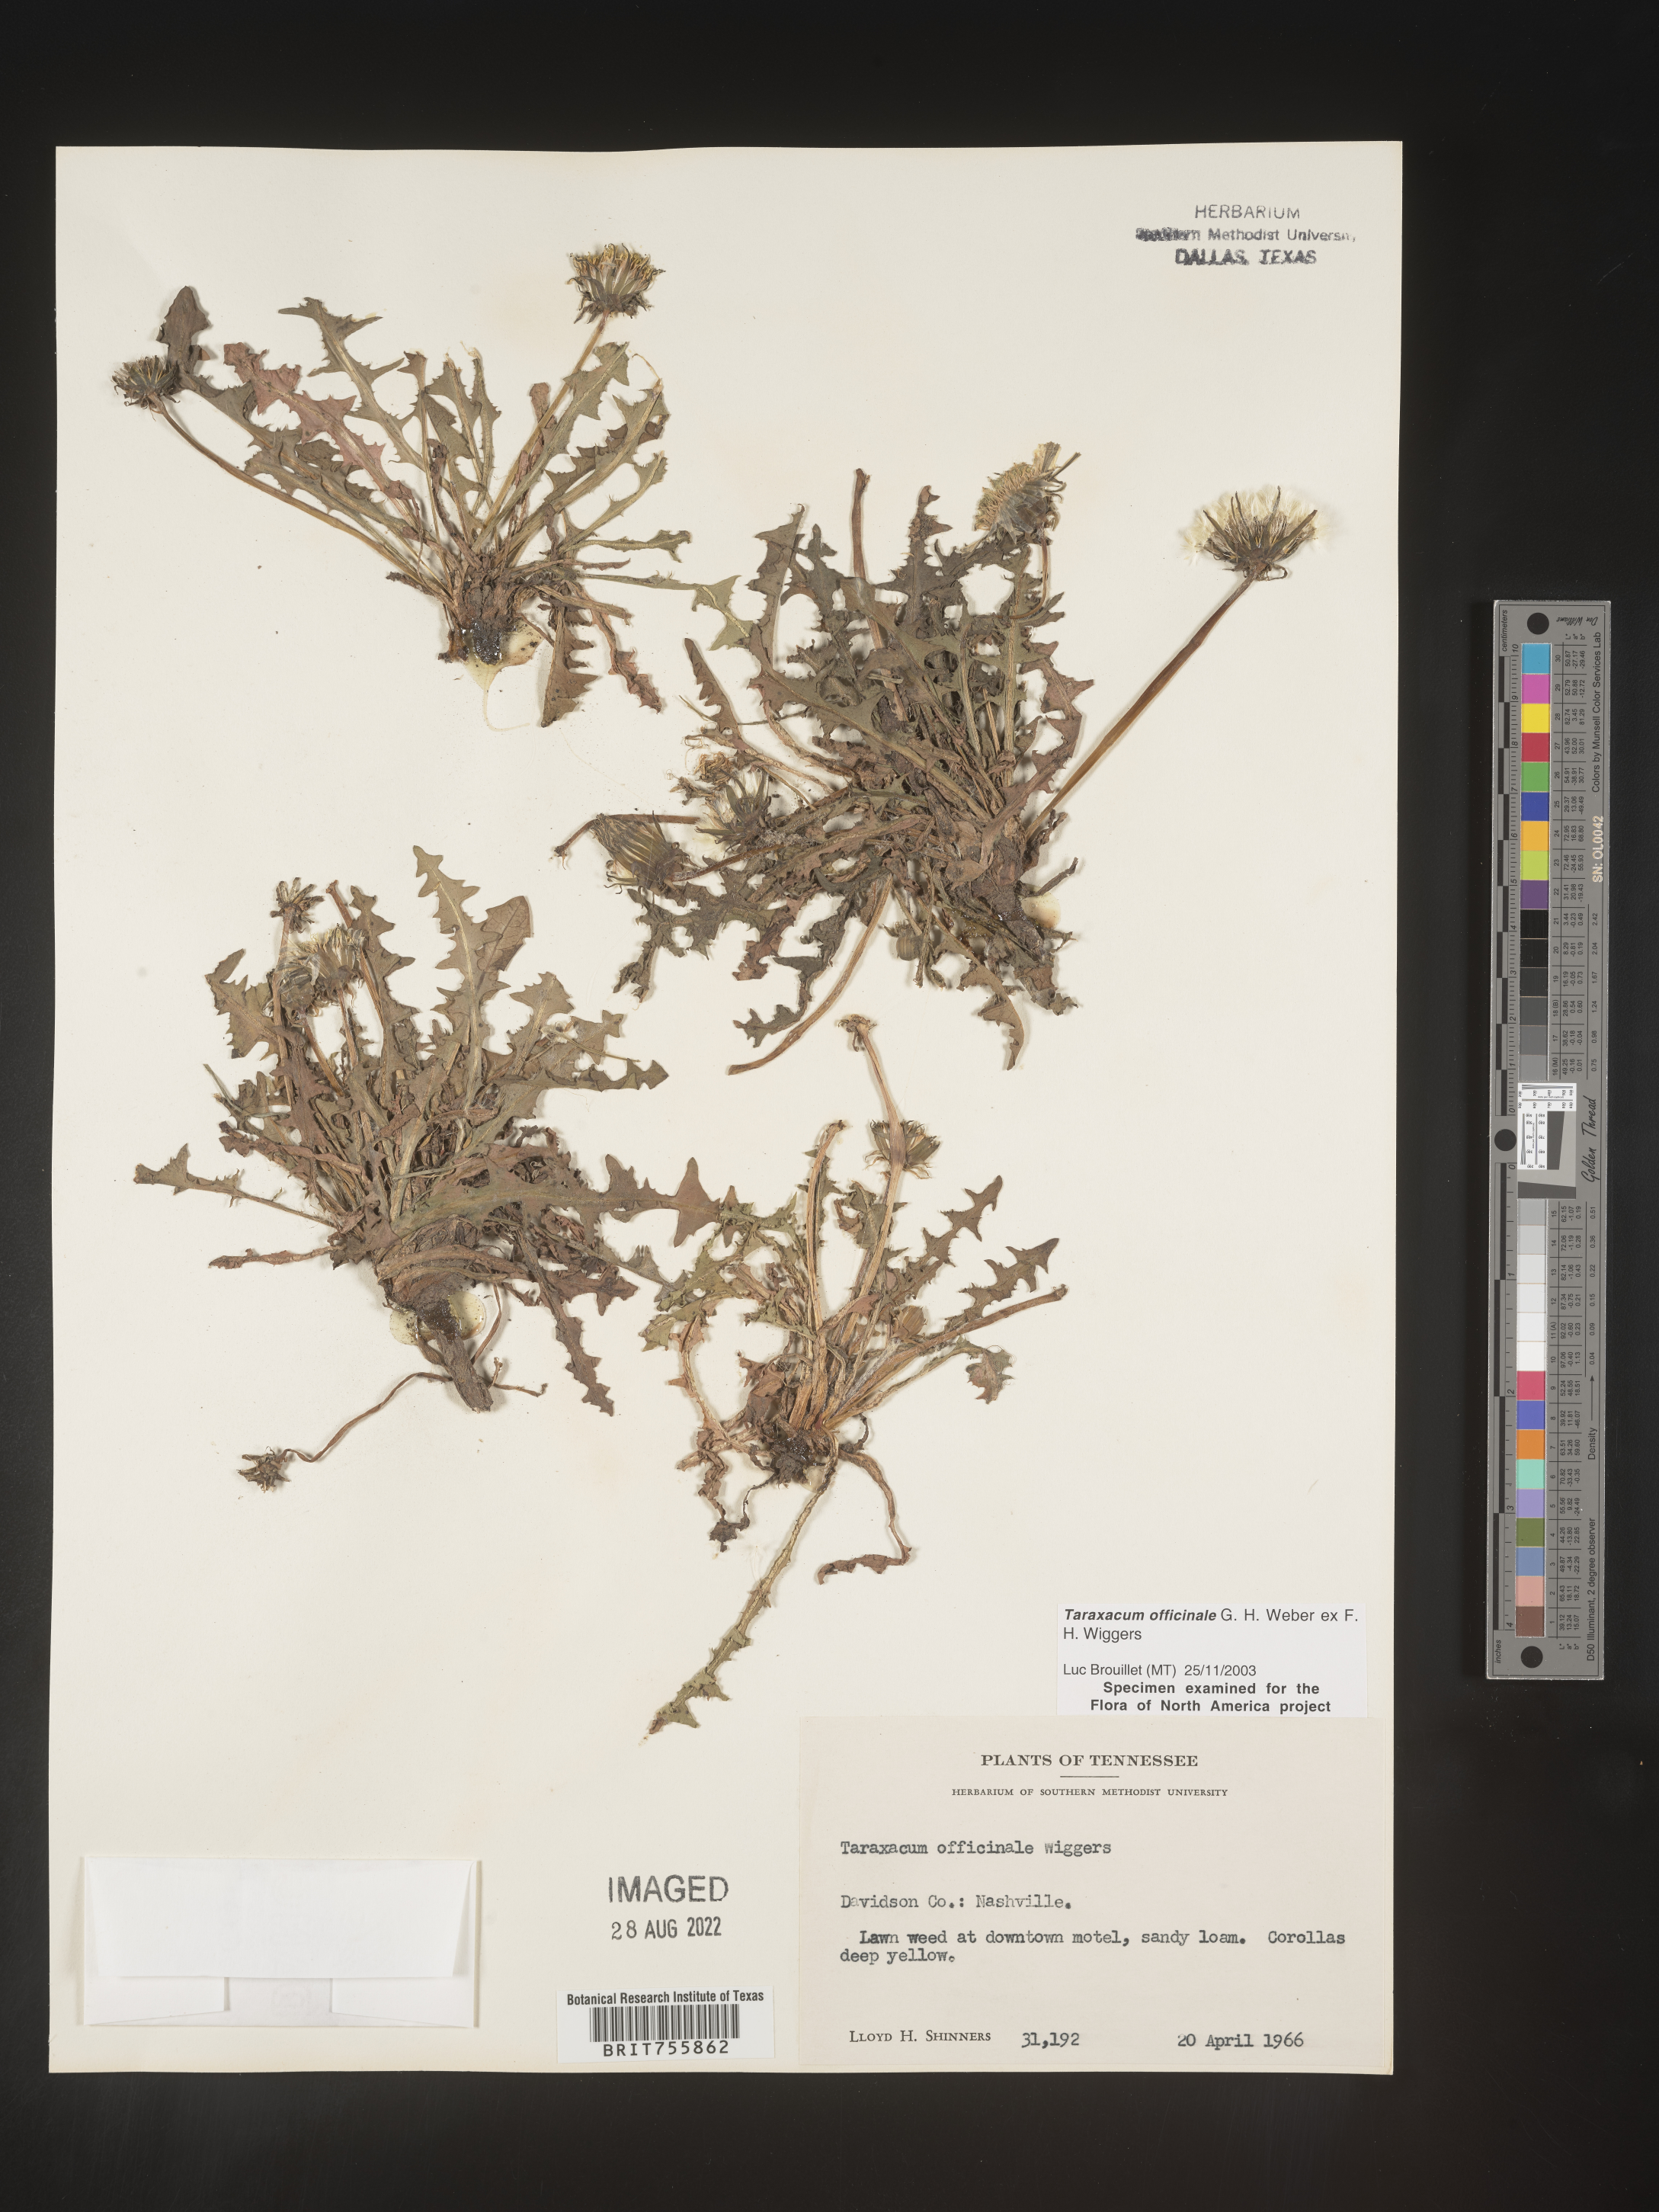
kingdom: Plantae
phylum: Tracheophyta
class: Magnoliopsida
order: Asterales
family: Asteraceae
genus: Taraxacum
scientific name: Taraxacum officinale
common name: Common dandelion
